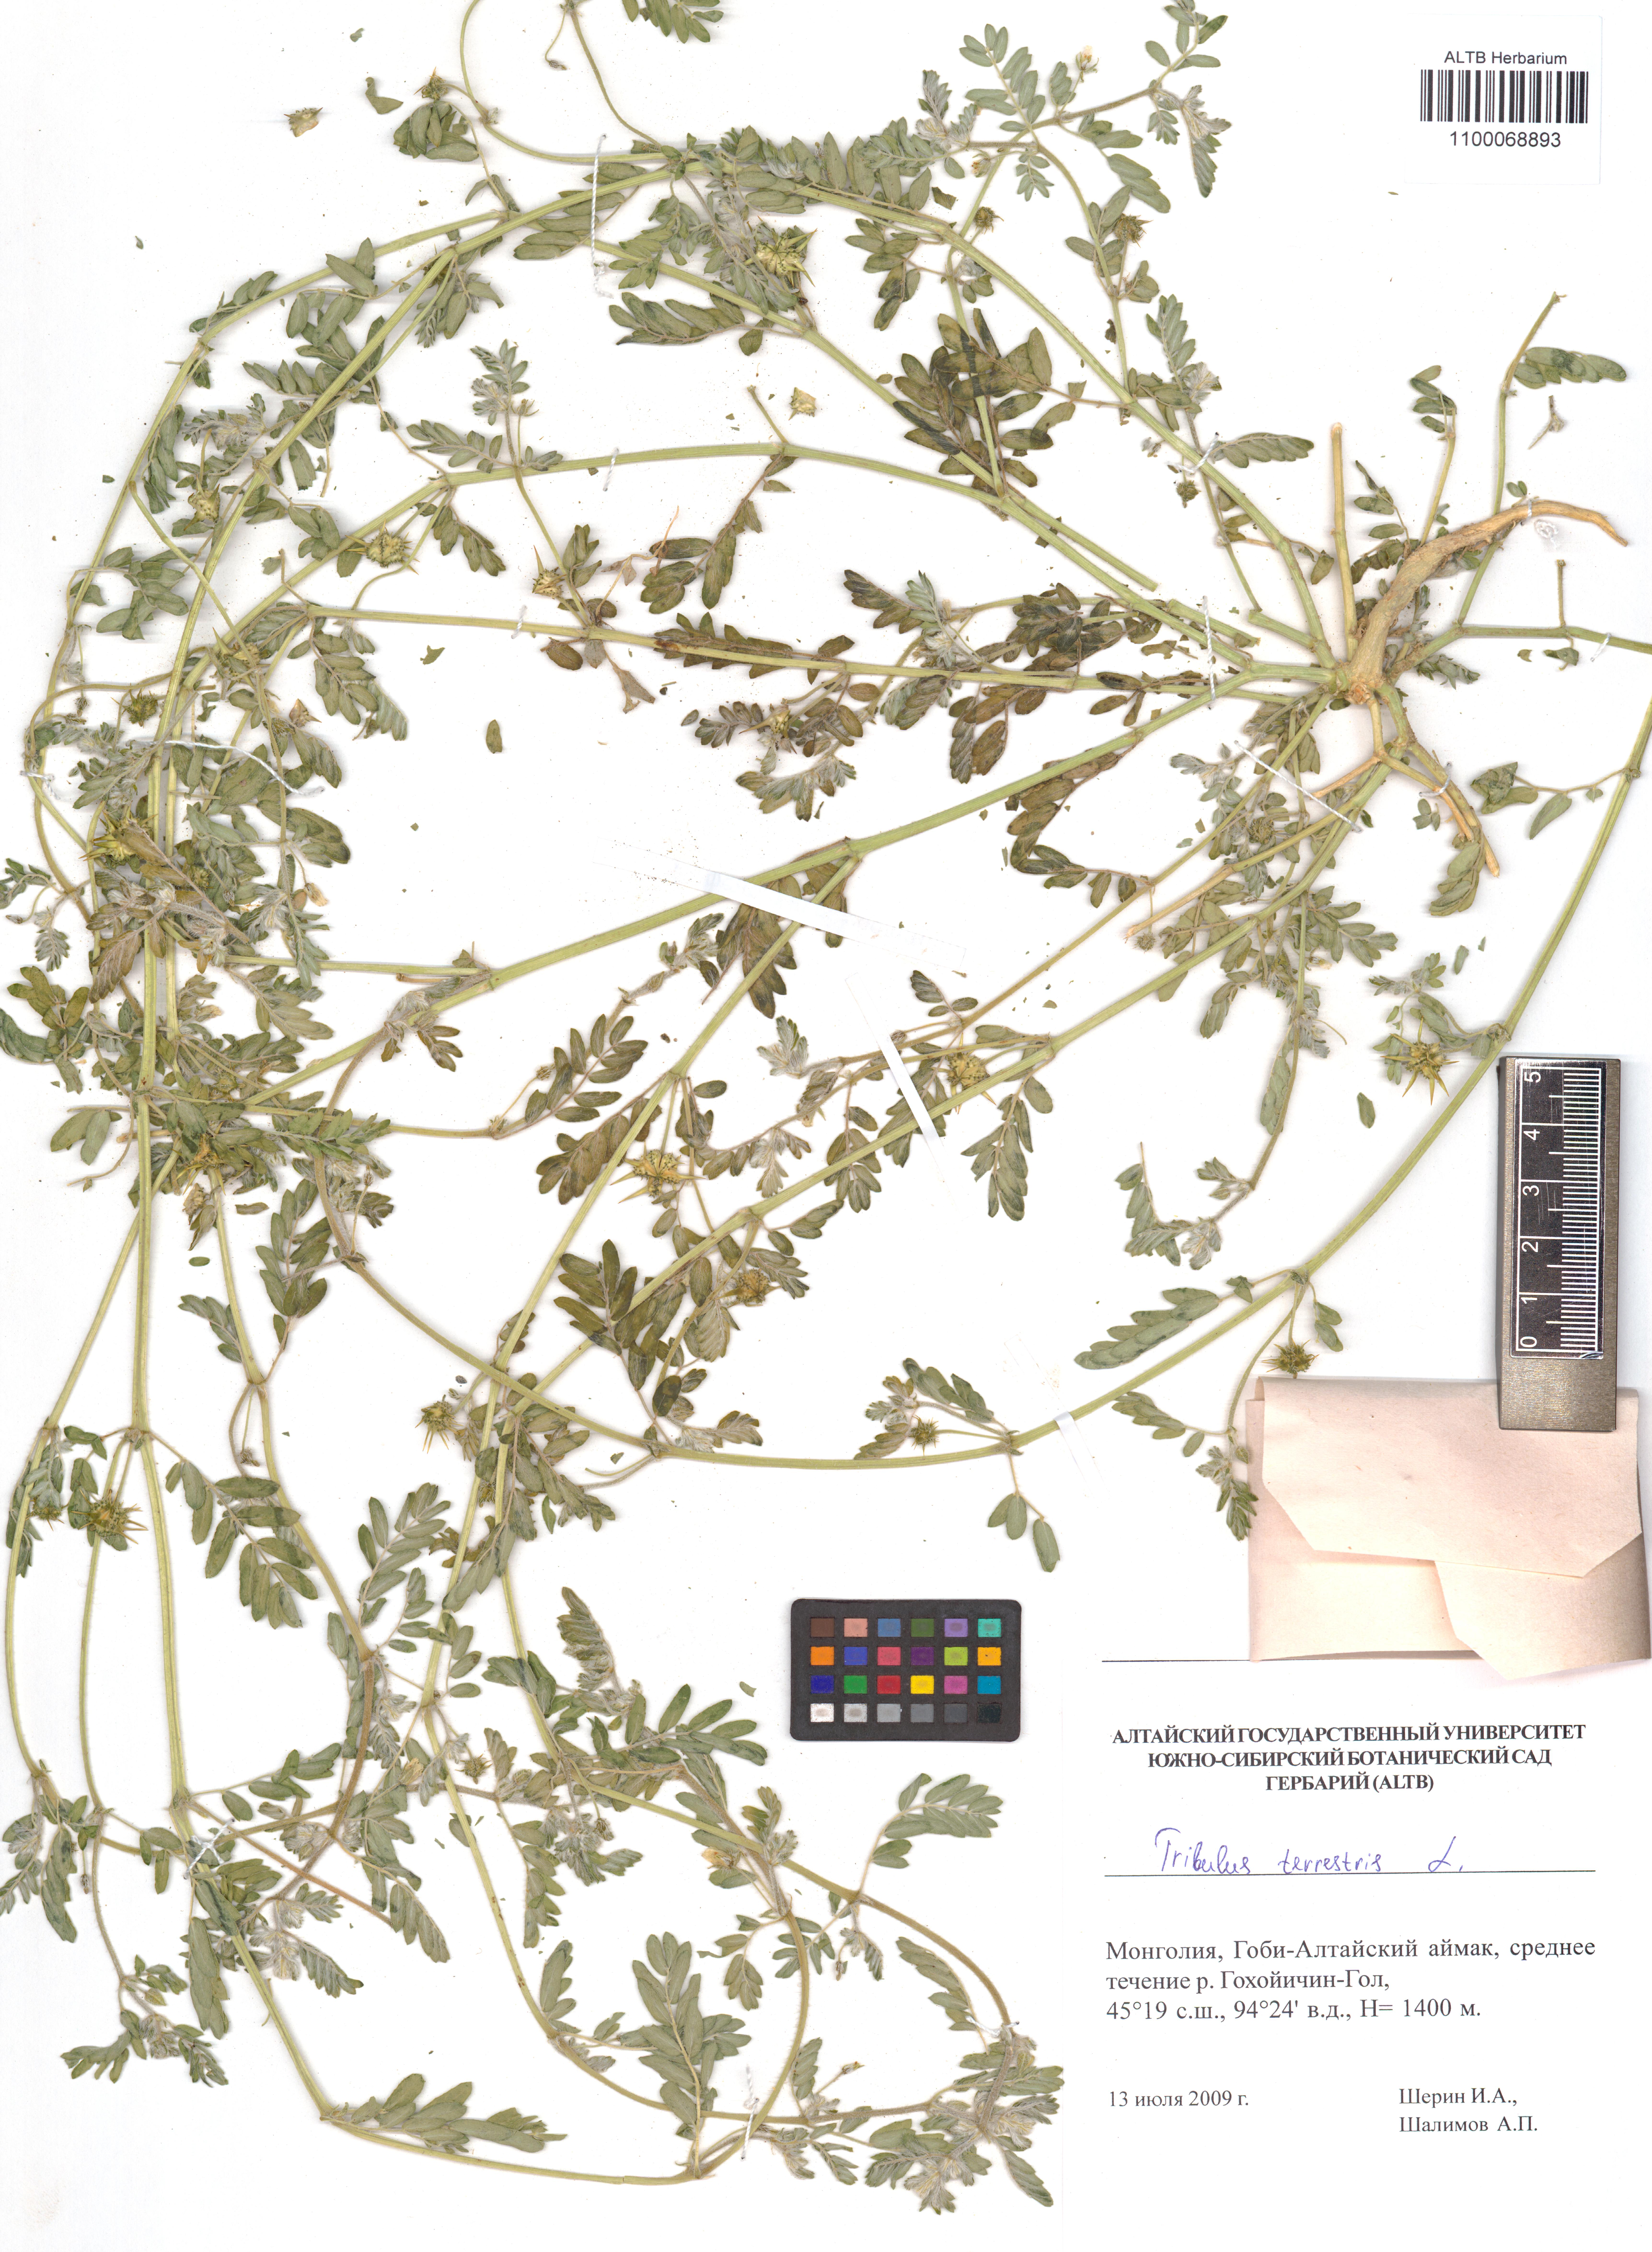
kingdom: Plantae
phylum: Tracheophyta
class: Magnoliopsida
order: Zygophyllales
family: Zygophyllaceae
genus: Tribulus
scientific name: Tribulus terrestris
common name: Puncturevine
